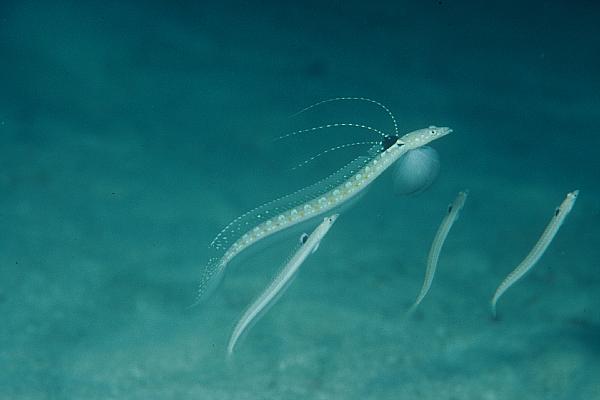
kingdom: Animalia
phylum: Chordata
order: Perciformes
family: Trichonotidae
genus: Trichonotus
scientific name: Trichonotus
